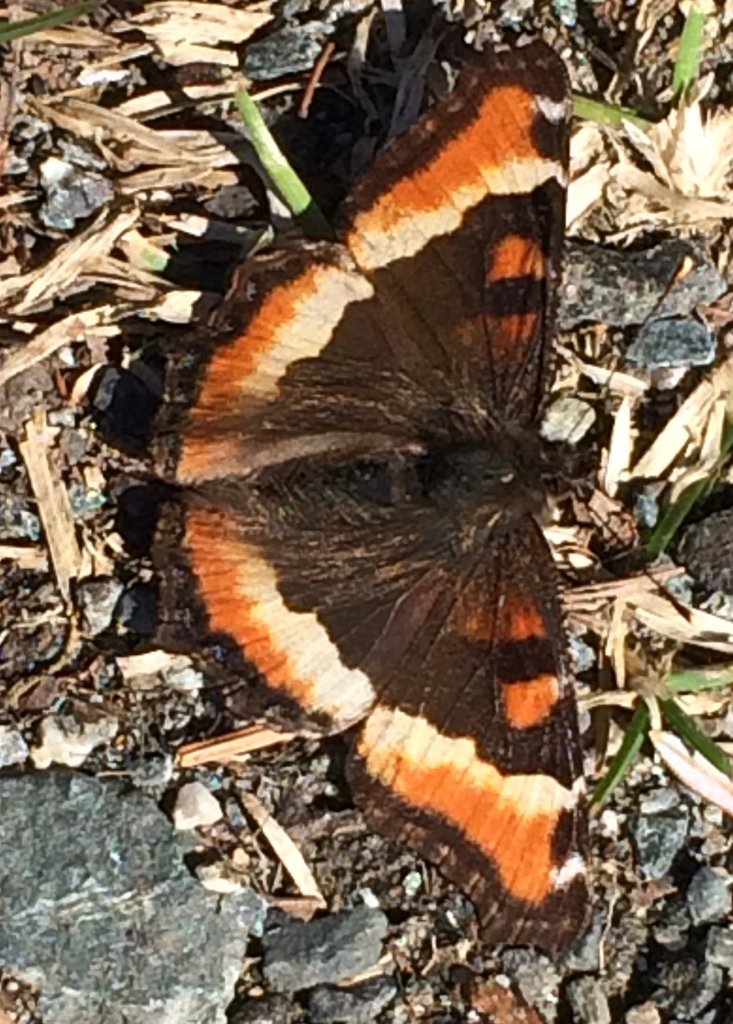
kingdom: Animalia
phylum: Arthropoda
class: Insecta
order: Lepidoptera
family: Nymphalidae
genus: Aglais
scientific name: Aglais milberti
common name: Milbert's Tortoiseshell
